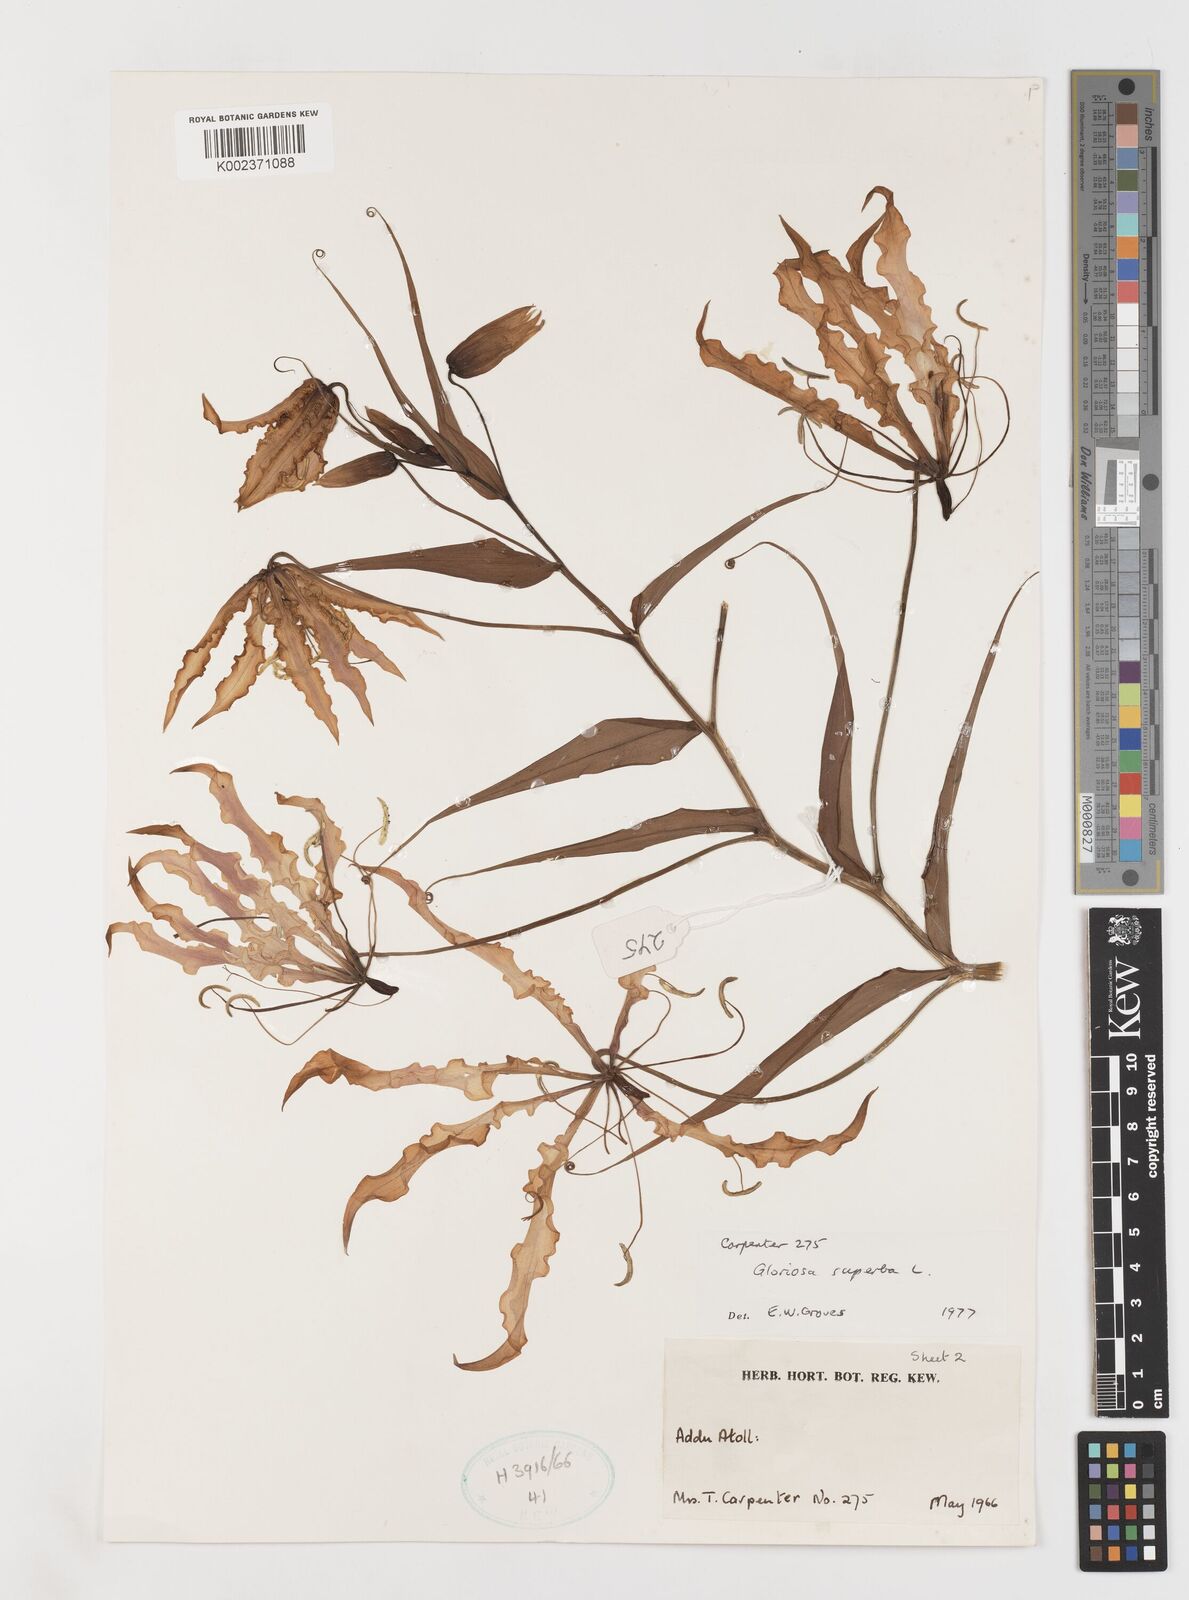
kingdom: Plantae
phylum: Tracheophyta
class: Liliopsida
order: Liliales
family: Colchicaceae
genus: Gloriosa
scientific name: Gloriosa superba
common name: Flame lily
